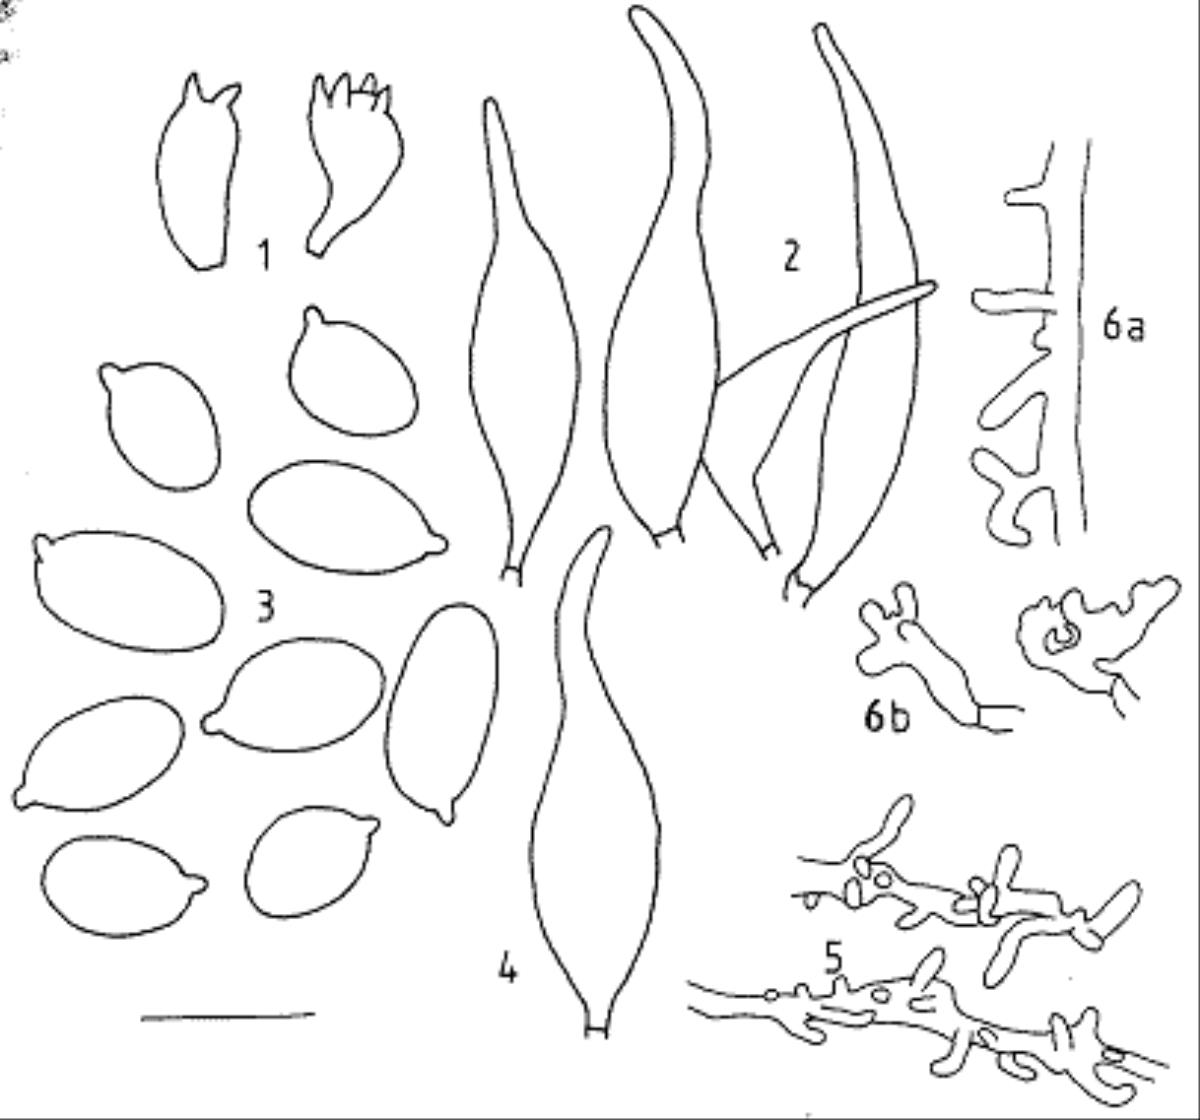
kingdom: Fungi
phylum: Basidiomycota
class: Agaricomycetes
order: Agaricales
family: Mycenaceae
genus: Mycena
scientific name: Mycena mariae
